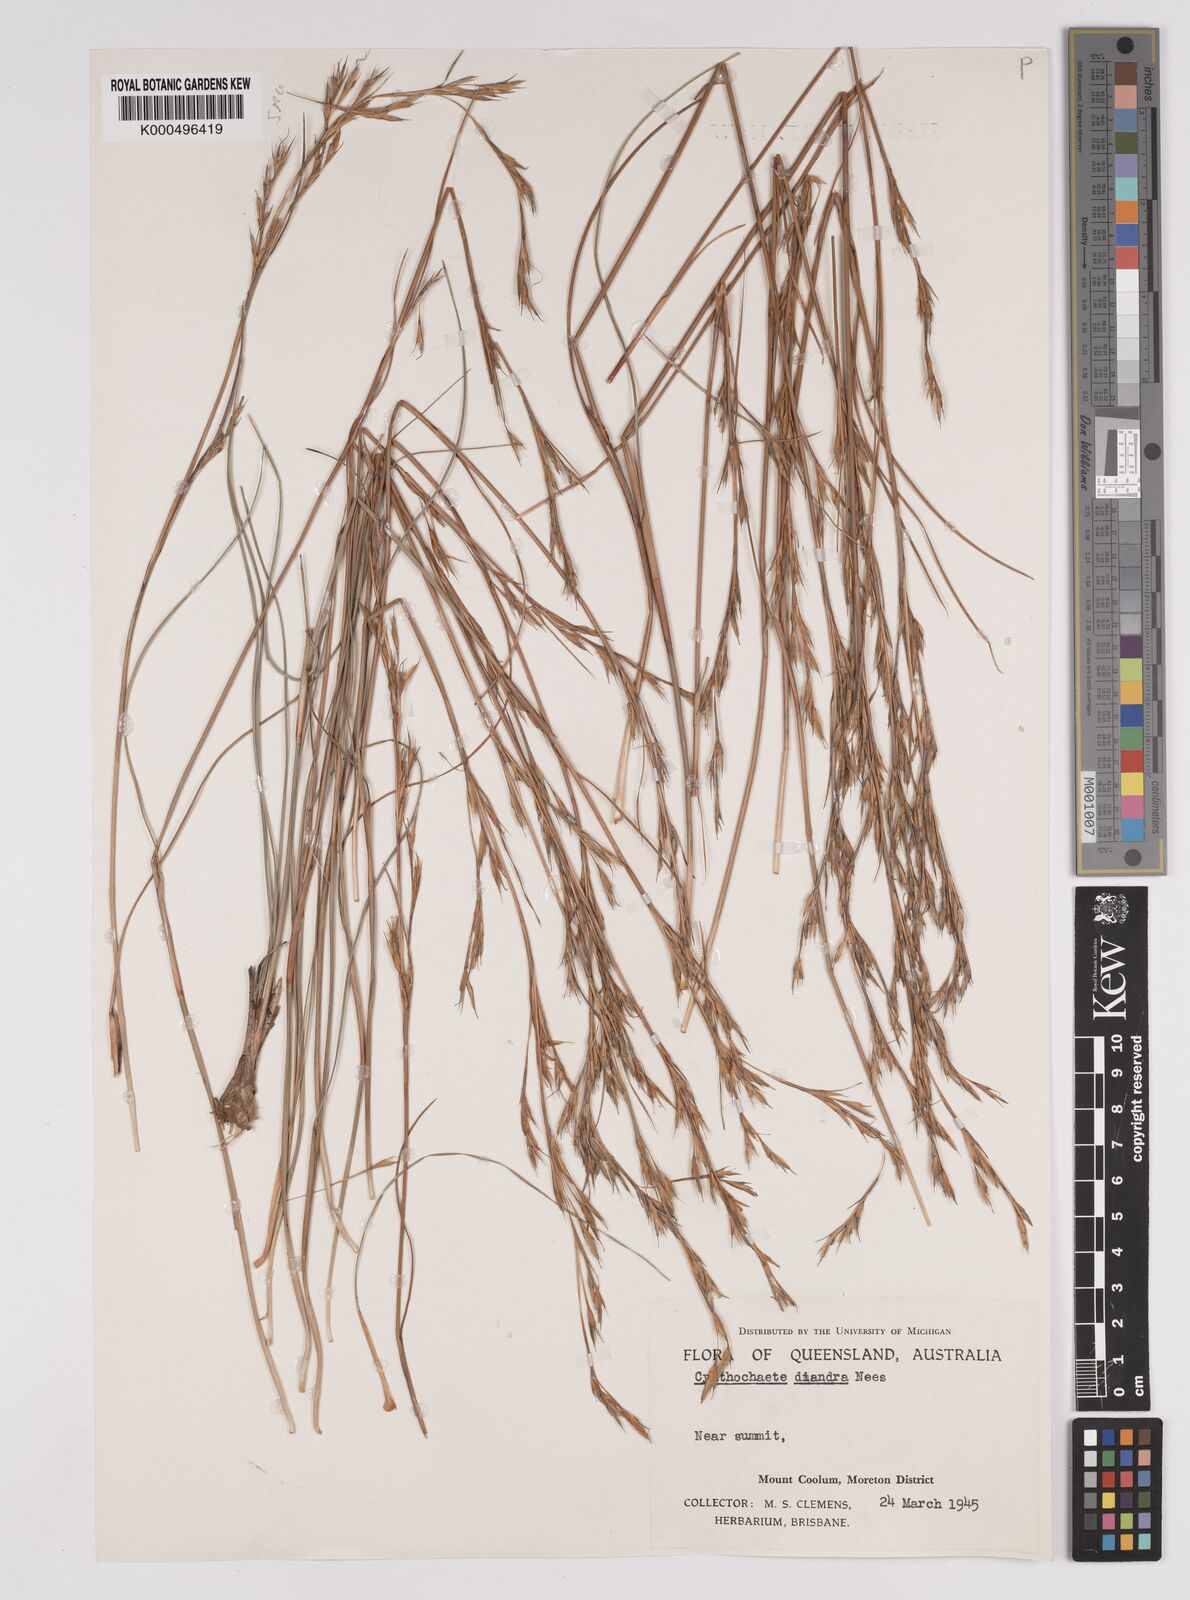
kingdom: Plantae
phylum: Tracheophyta
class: Liliopsida
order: Poales
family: Cyperaceae
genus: Cyathochaeta
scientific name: Cyathochaeta diandra
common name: Sheath rush
